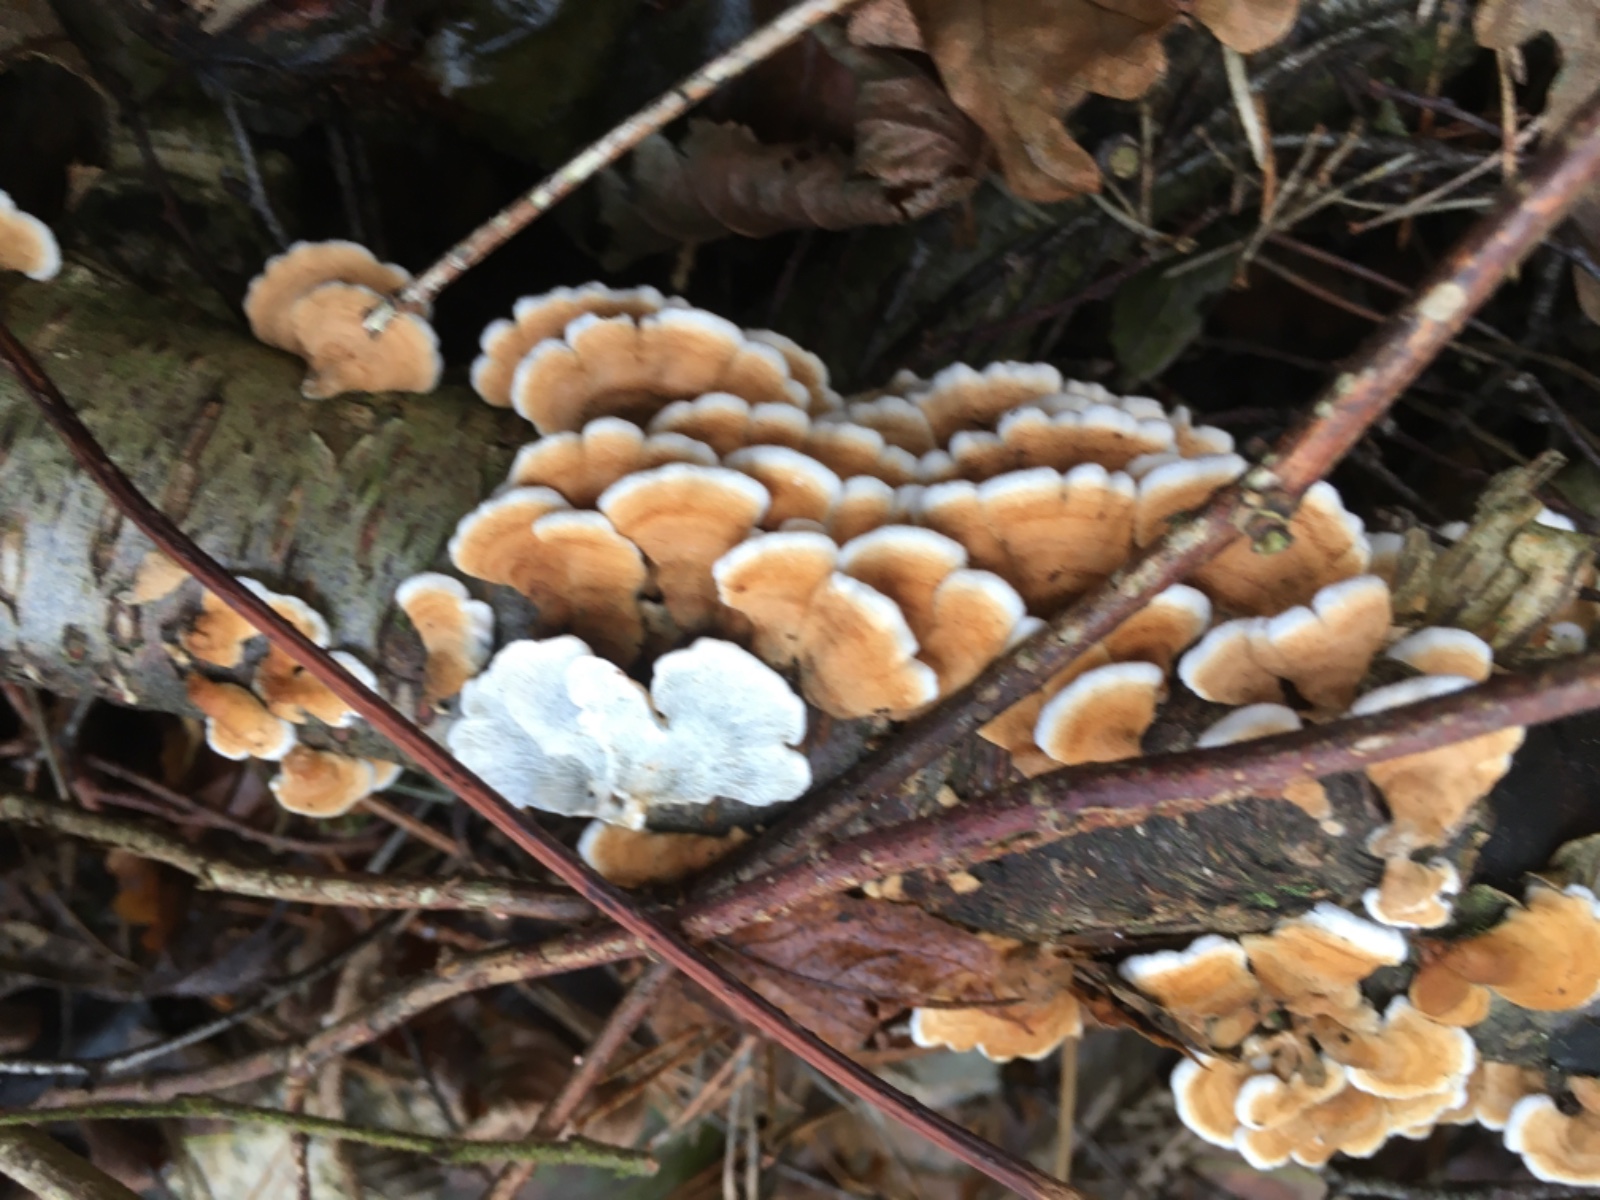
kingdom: Fungi
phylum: Basidiomycota
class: Agaricomycetes
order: Amylocorticiales
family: Amylocorticiaceae
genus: Plicaturopsis
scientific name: Plicaturopsis crispa
